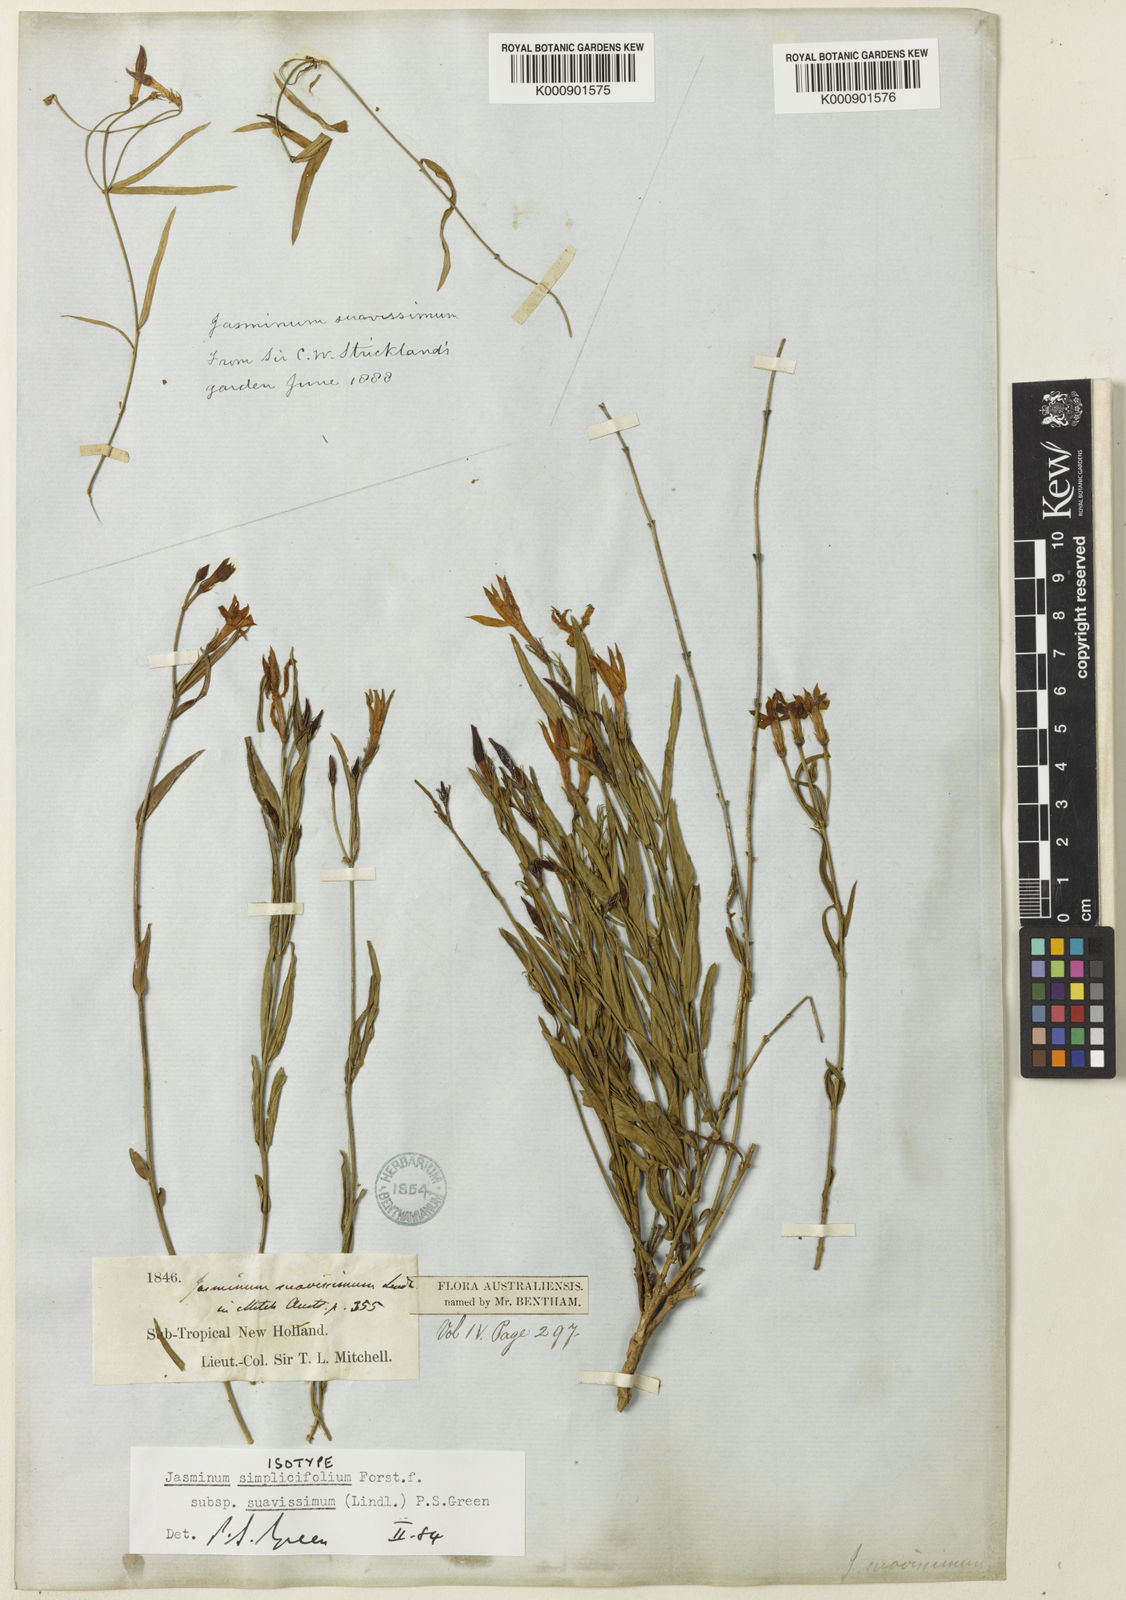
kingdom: Plantae
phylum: Tracheophyta
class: Magnoliopsida
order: Lamiales
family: Oleaceae
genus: Jasminum
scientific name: Jasminum simplicifolium
